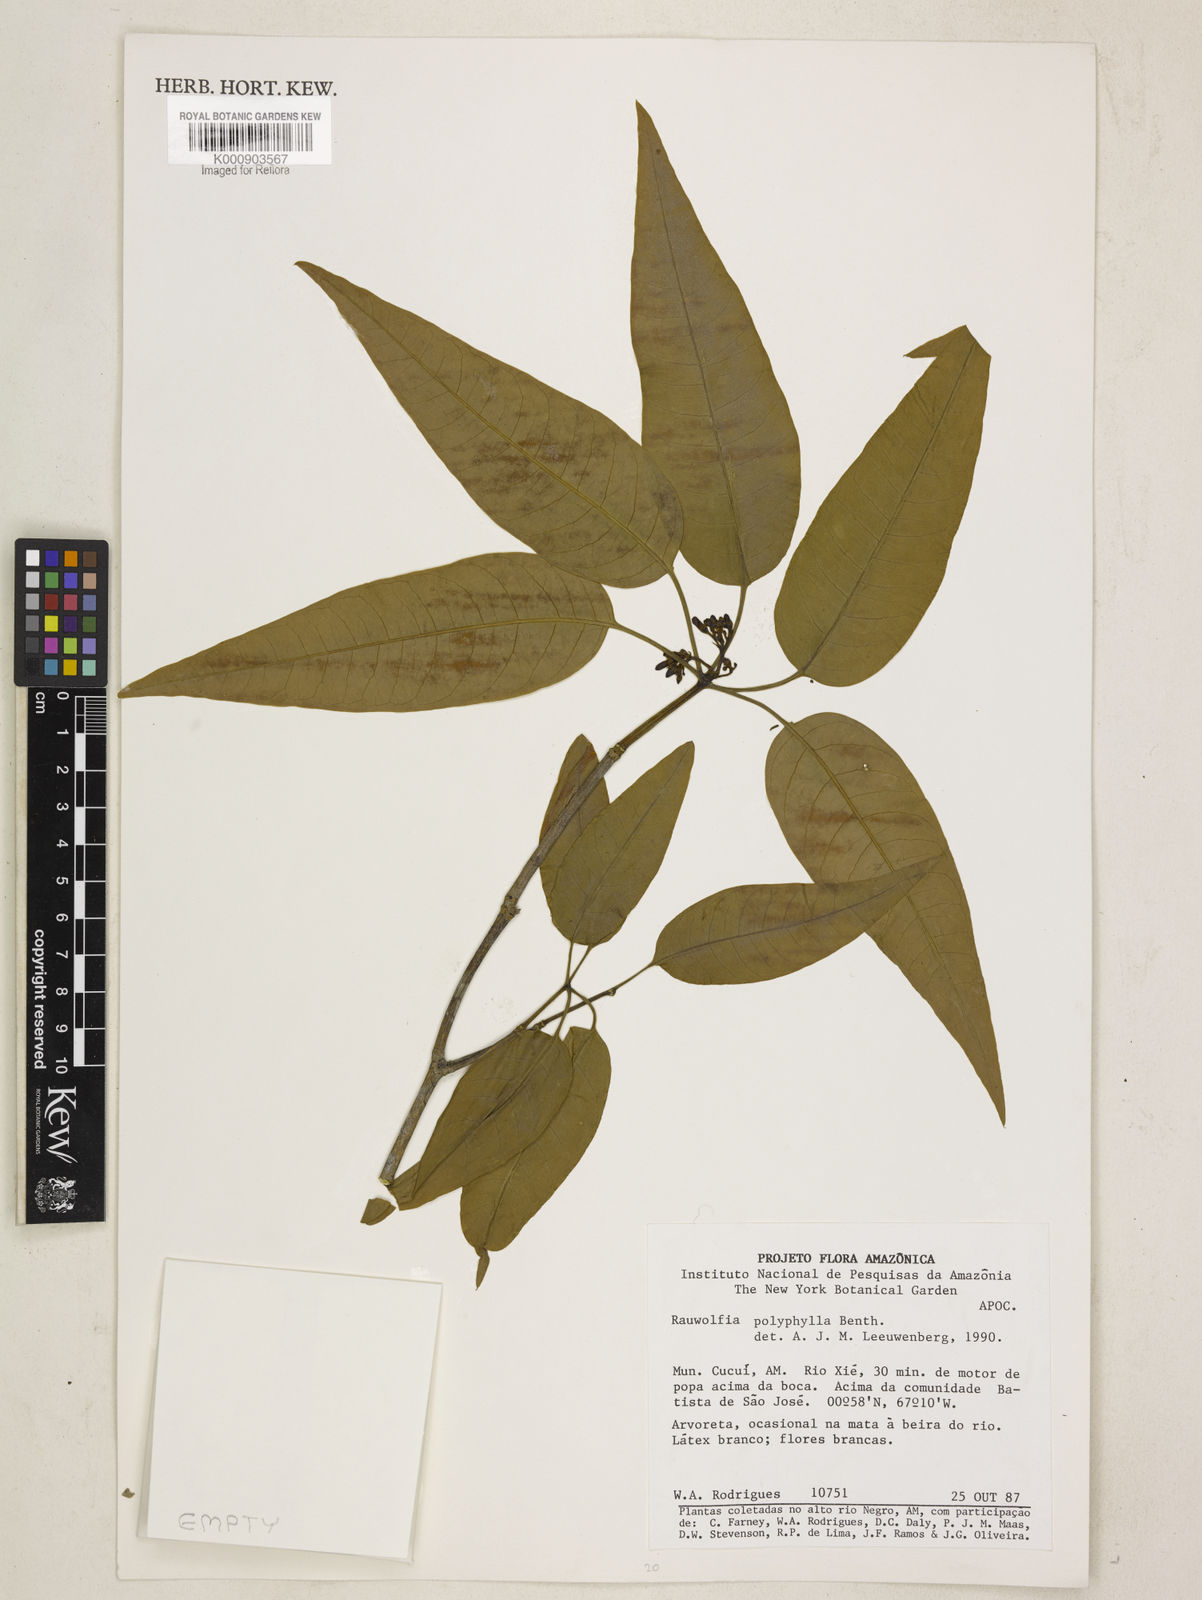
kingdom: Plantae
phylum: Tracheophyta
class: Magnoliopsida
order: Gentianales
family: Apocynaceae
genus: Rauvolfia
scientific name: Rauvolfia polyphylla
